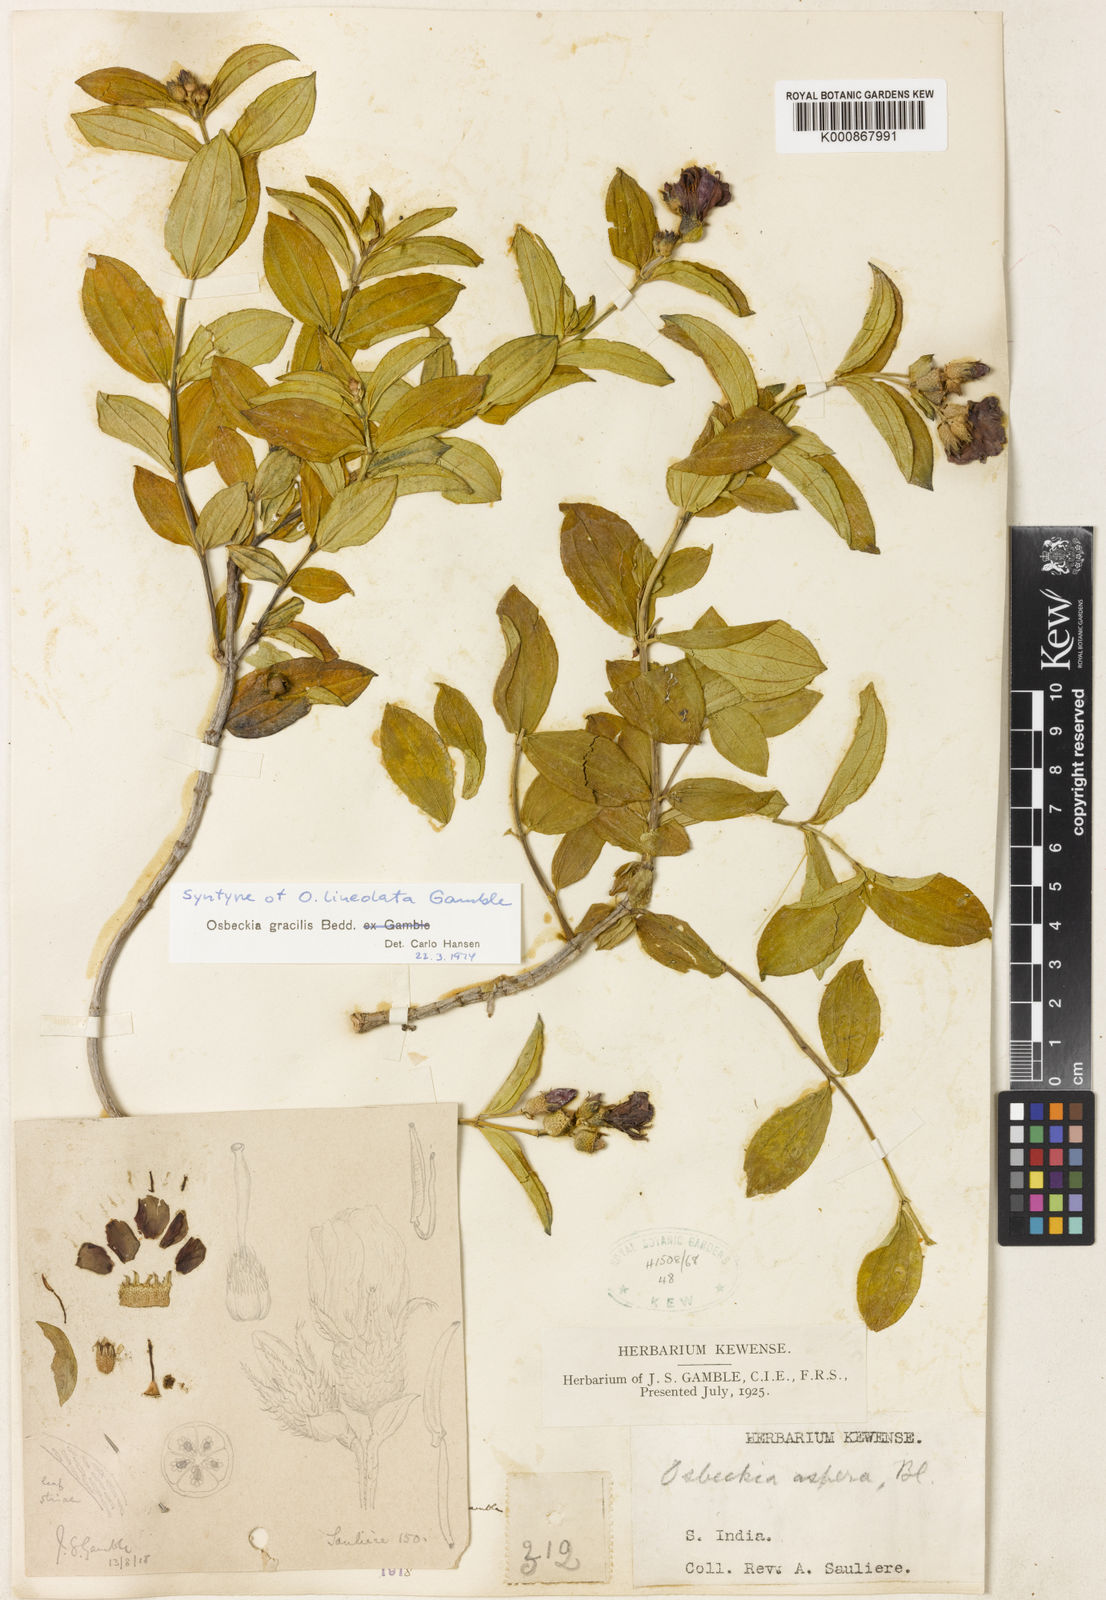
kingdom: Plantae
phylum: Tracheophyta
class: Magnoliopsida
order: Myrtales
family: Melastomataceae
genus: Osbeckia
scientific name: Osbeckia gracilis
